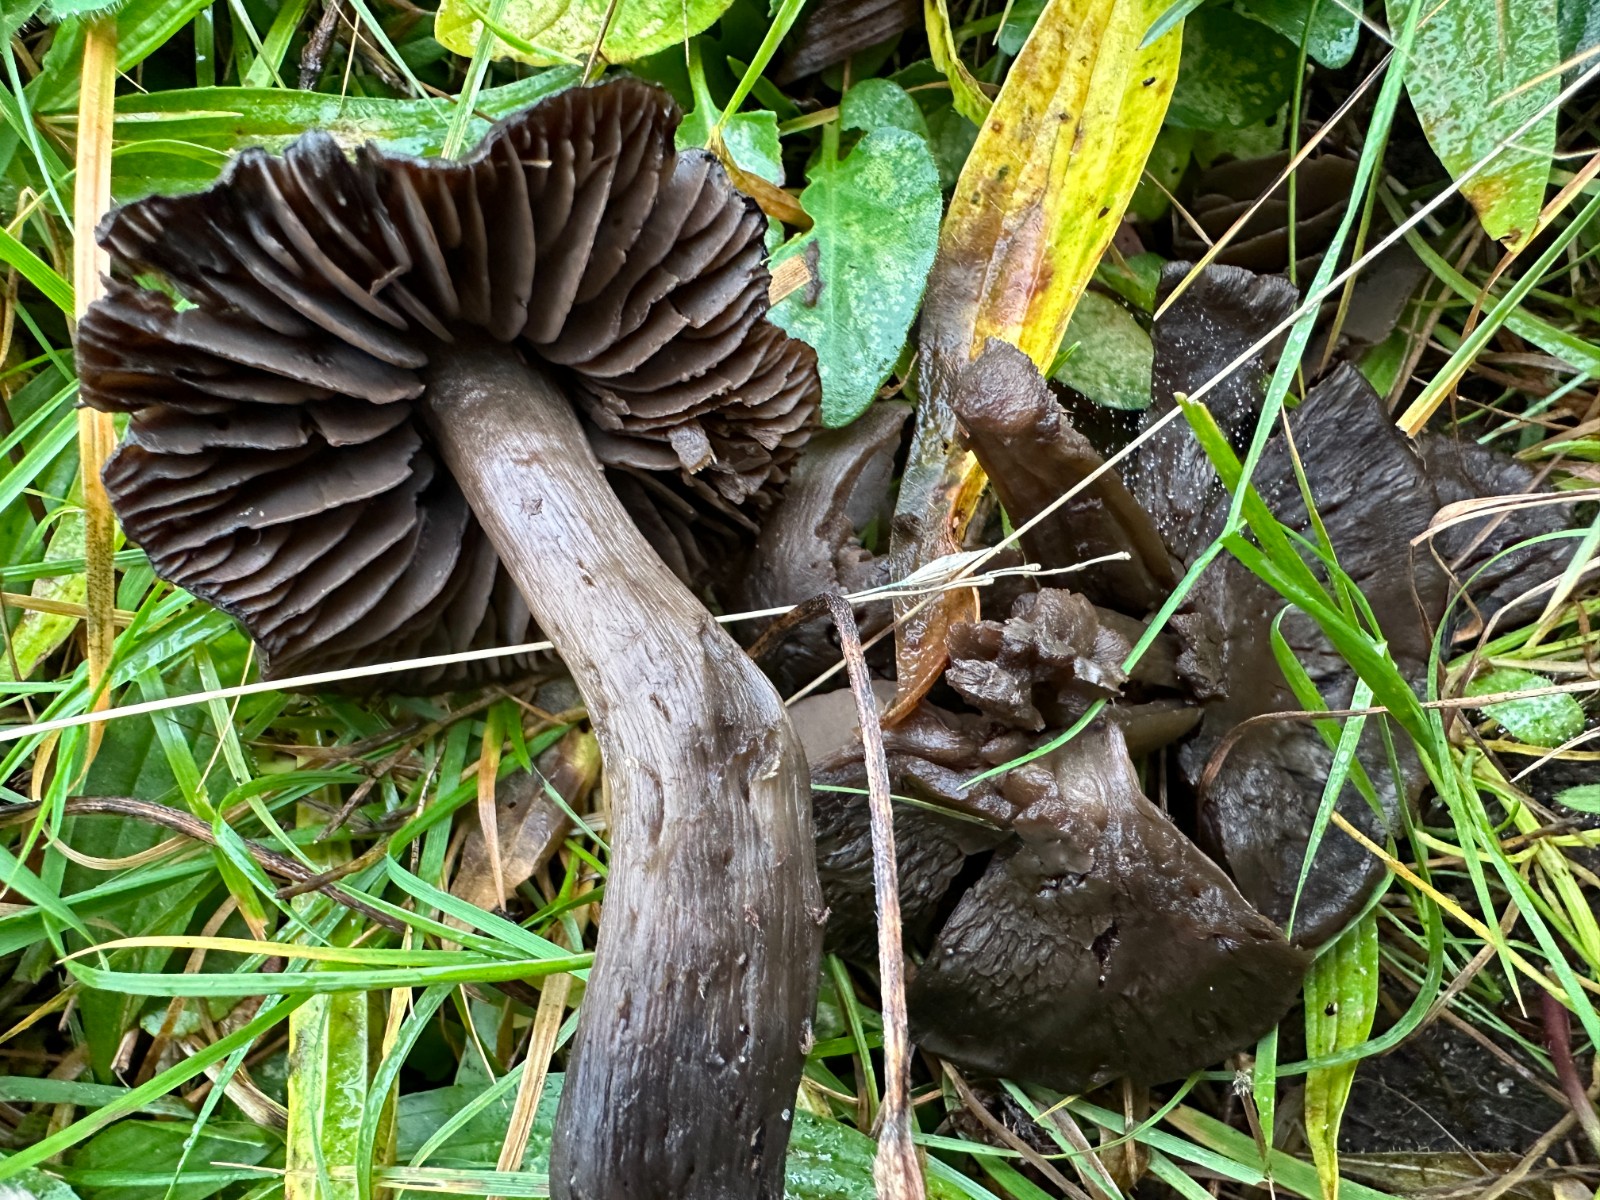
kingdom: Fungi
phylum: Basidiomycota
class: Agaricomycetes
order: Agaricales
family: Hygrophoraceae
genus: Neohygrocybe
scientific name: Neohygrocybe ovina
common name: rødmende vokshat
